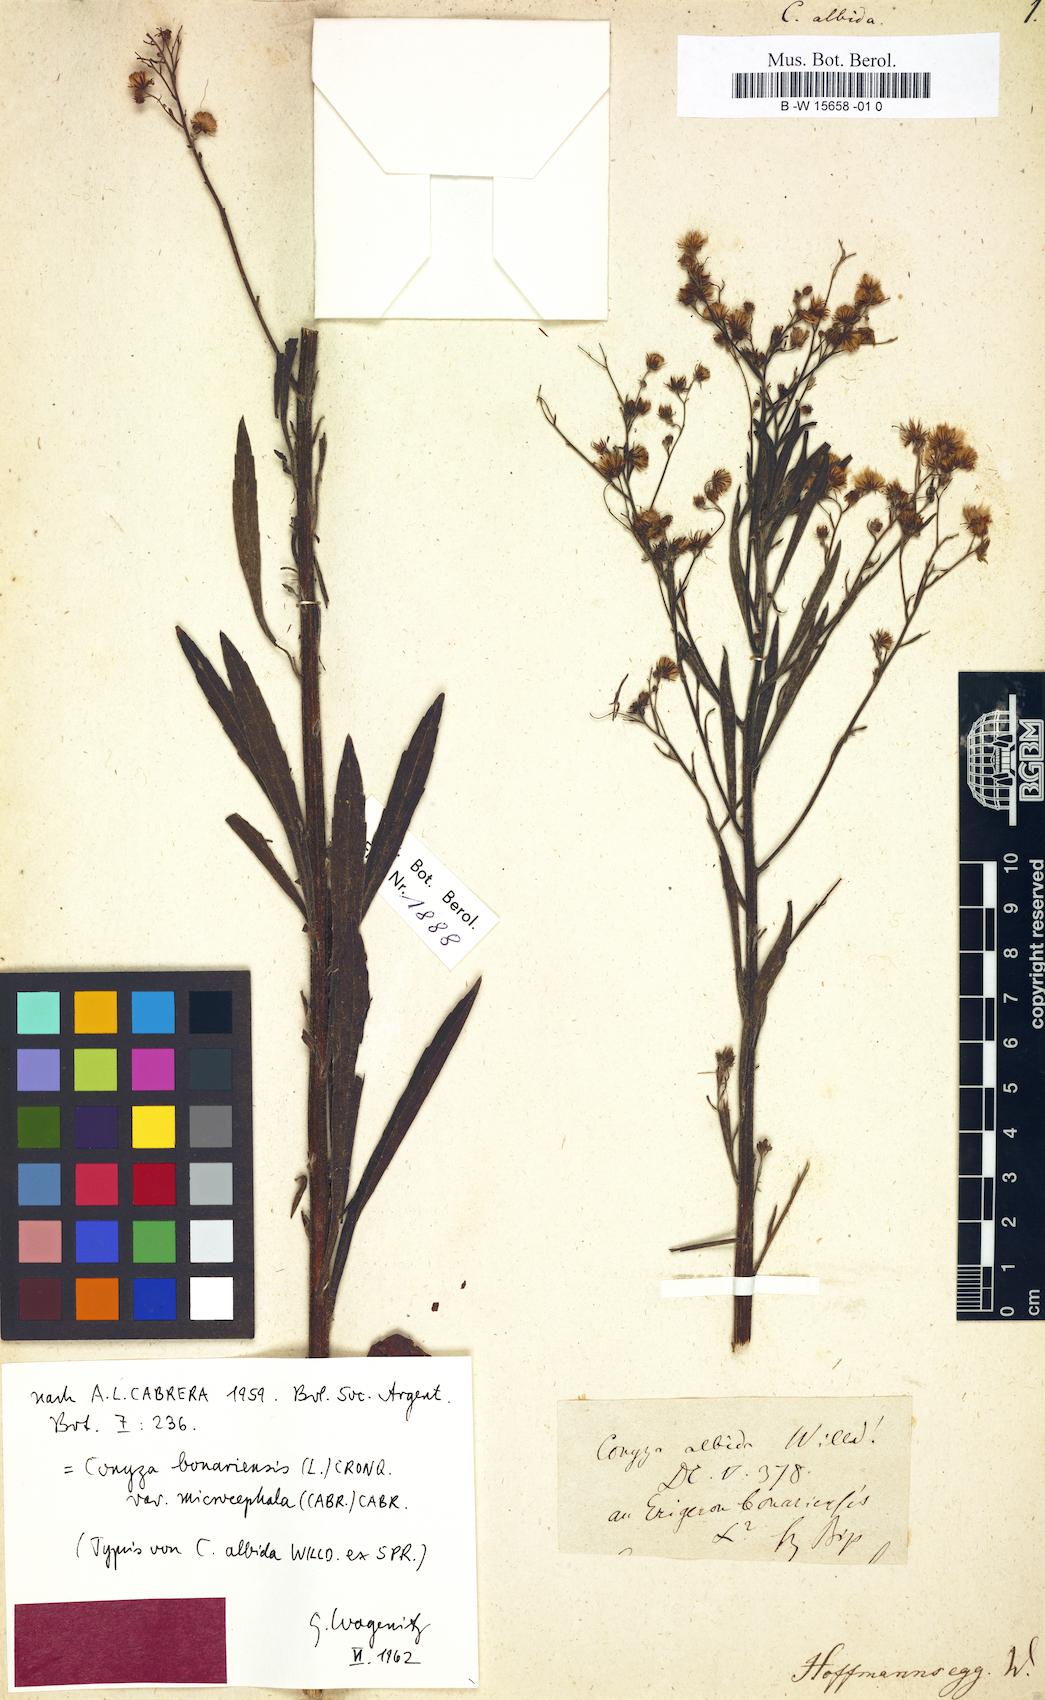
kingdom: Plantae
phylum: Tracheophyta
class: Magnoliopsida
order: Asterales
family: Asteraceae
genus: Erigeron
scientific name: Erigeron floribundus
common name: Bilbao fleabane
